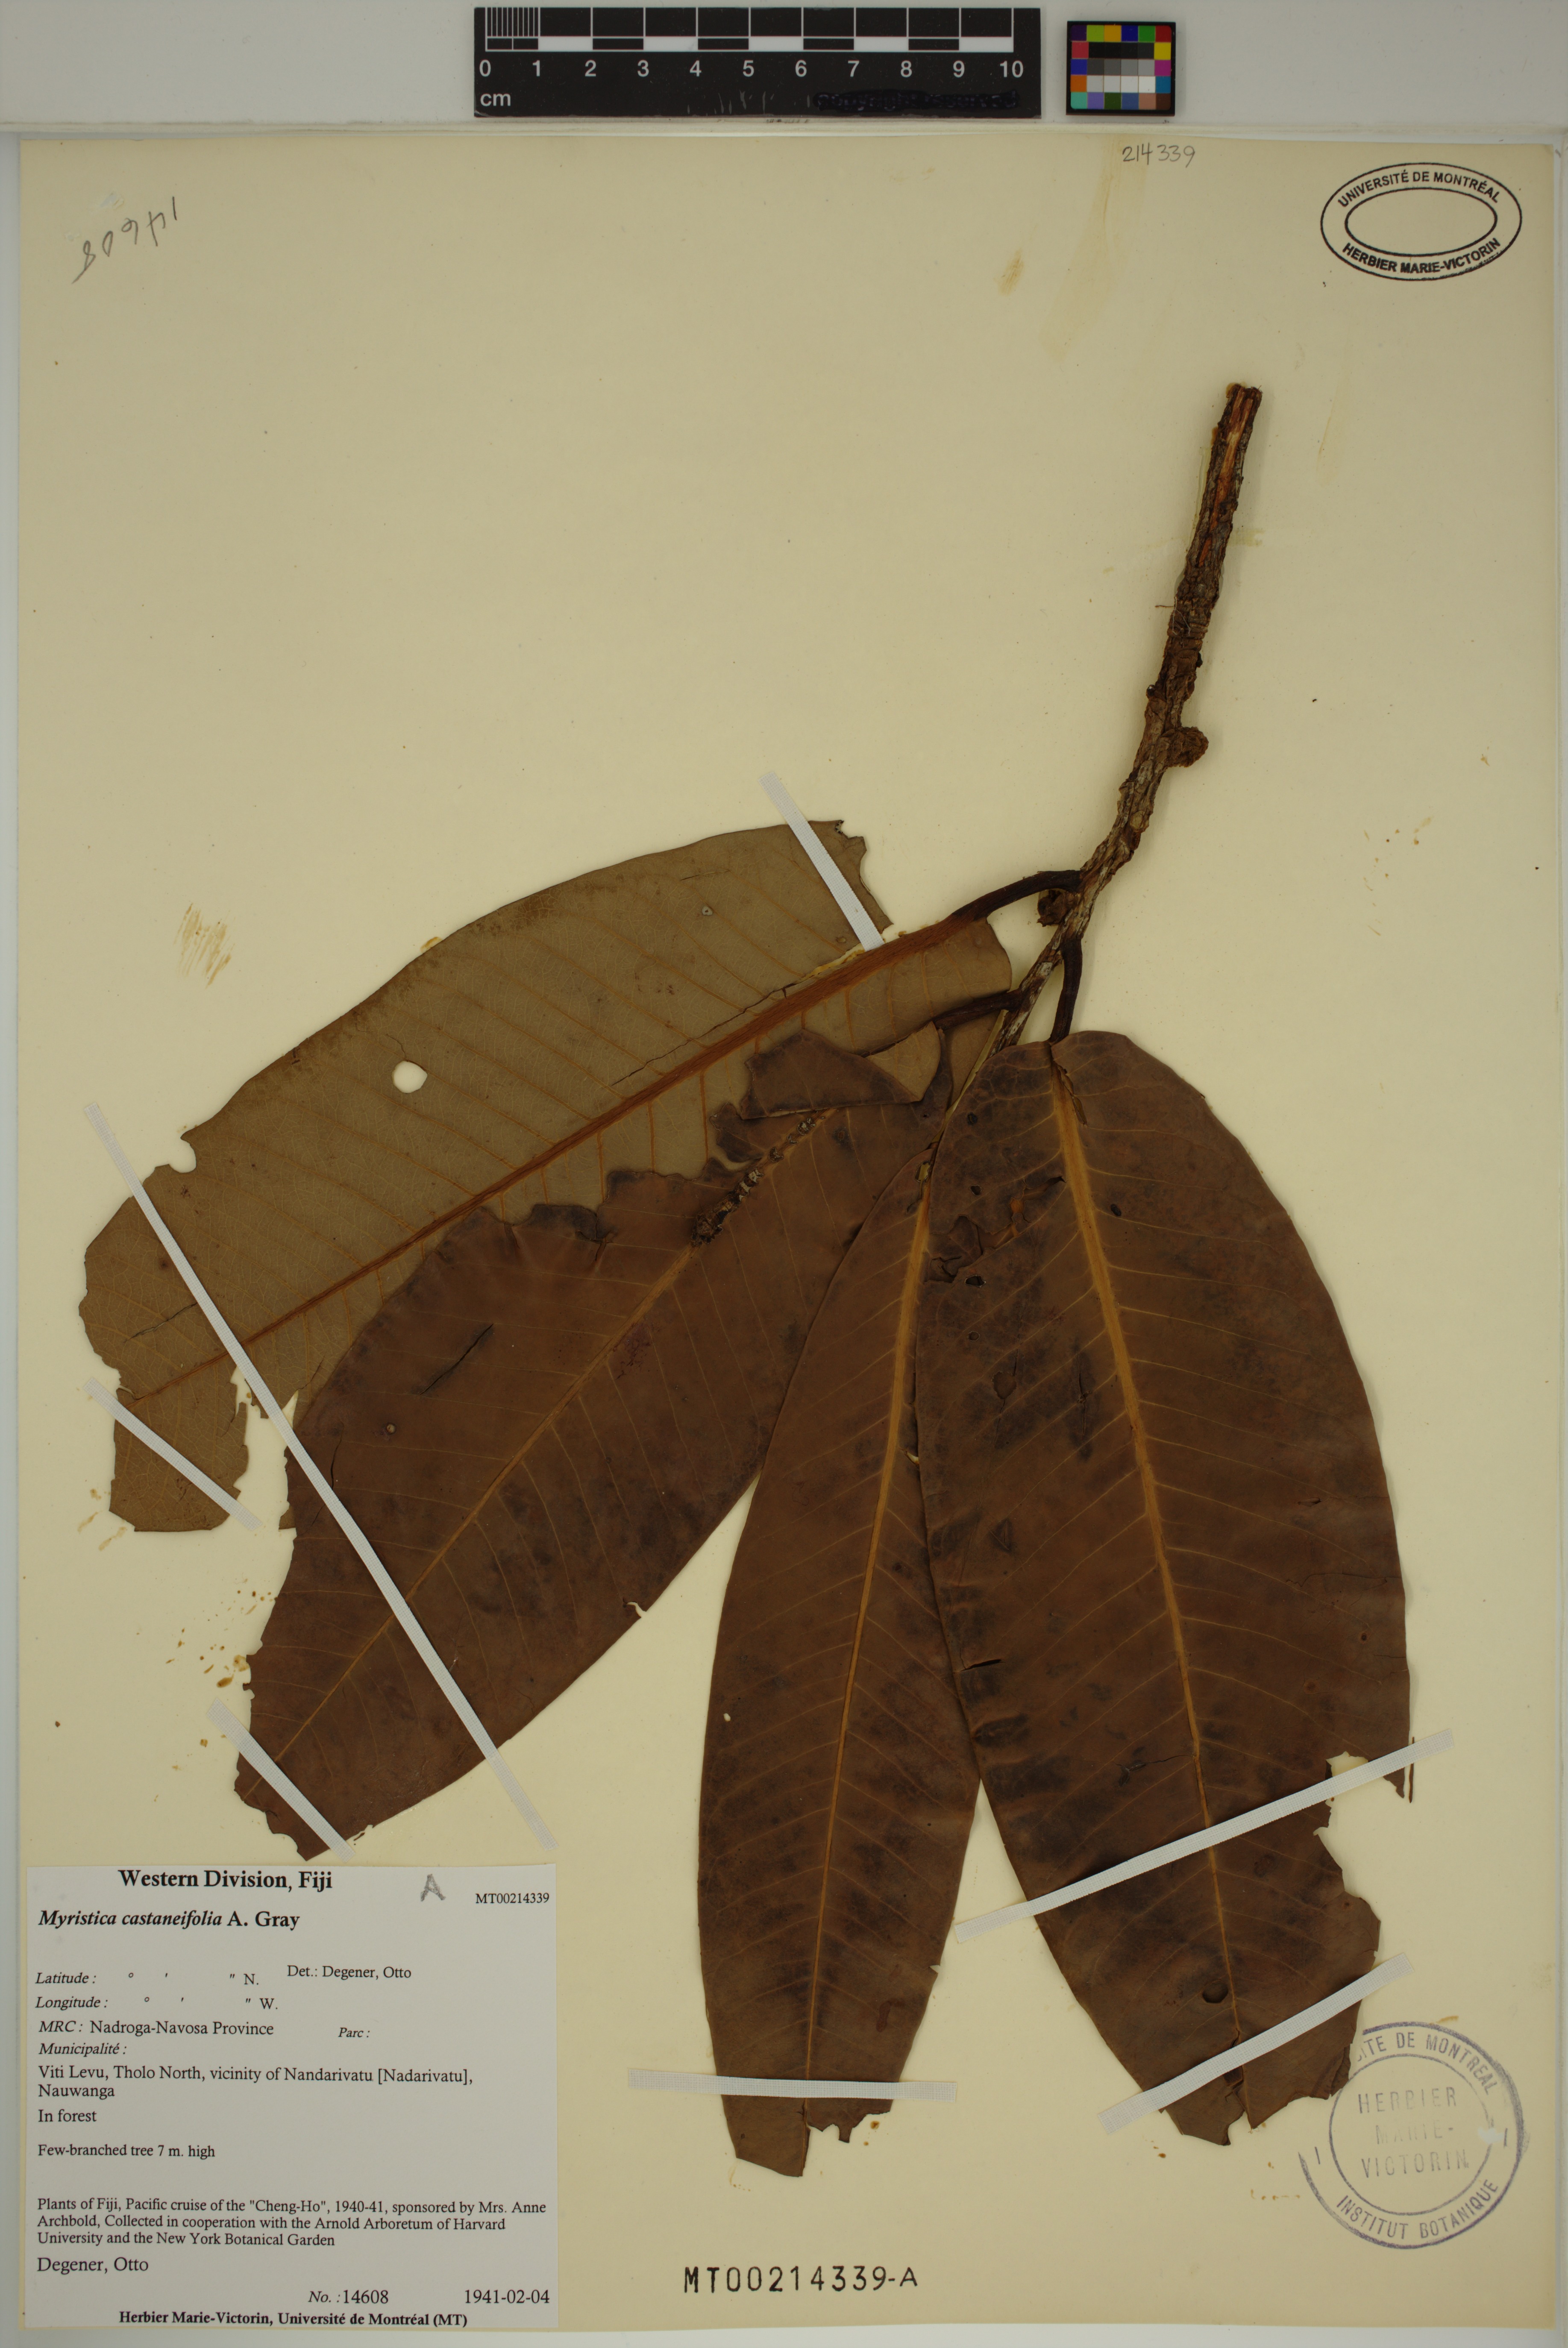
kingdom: Plantae
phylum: Tracheophyta
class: Magnoliopsida
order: Magnoliales
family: Myristicaceae
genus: Myristica
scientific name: Myristica castaneifolia
